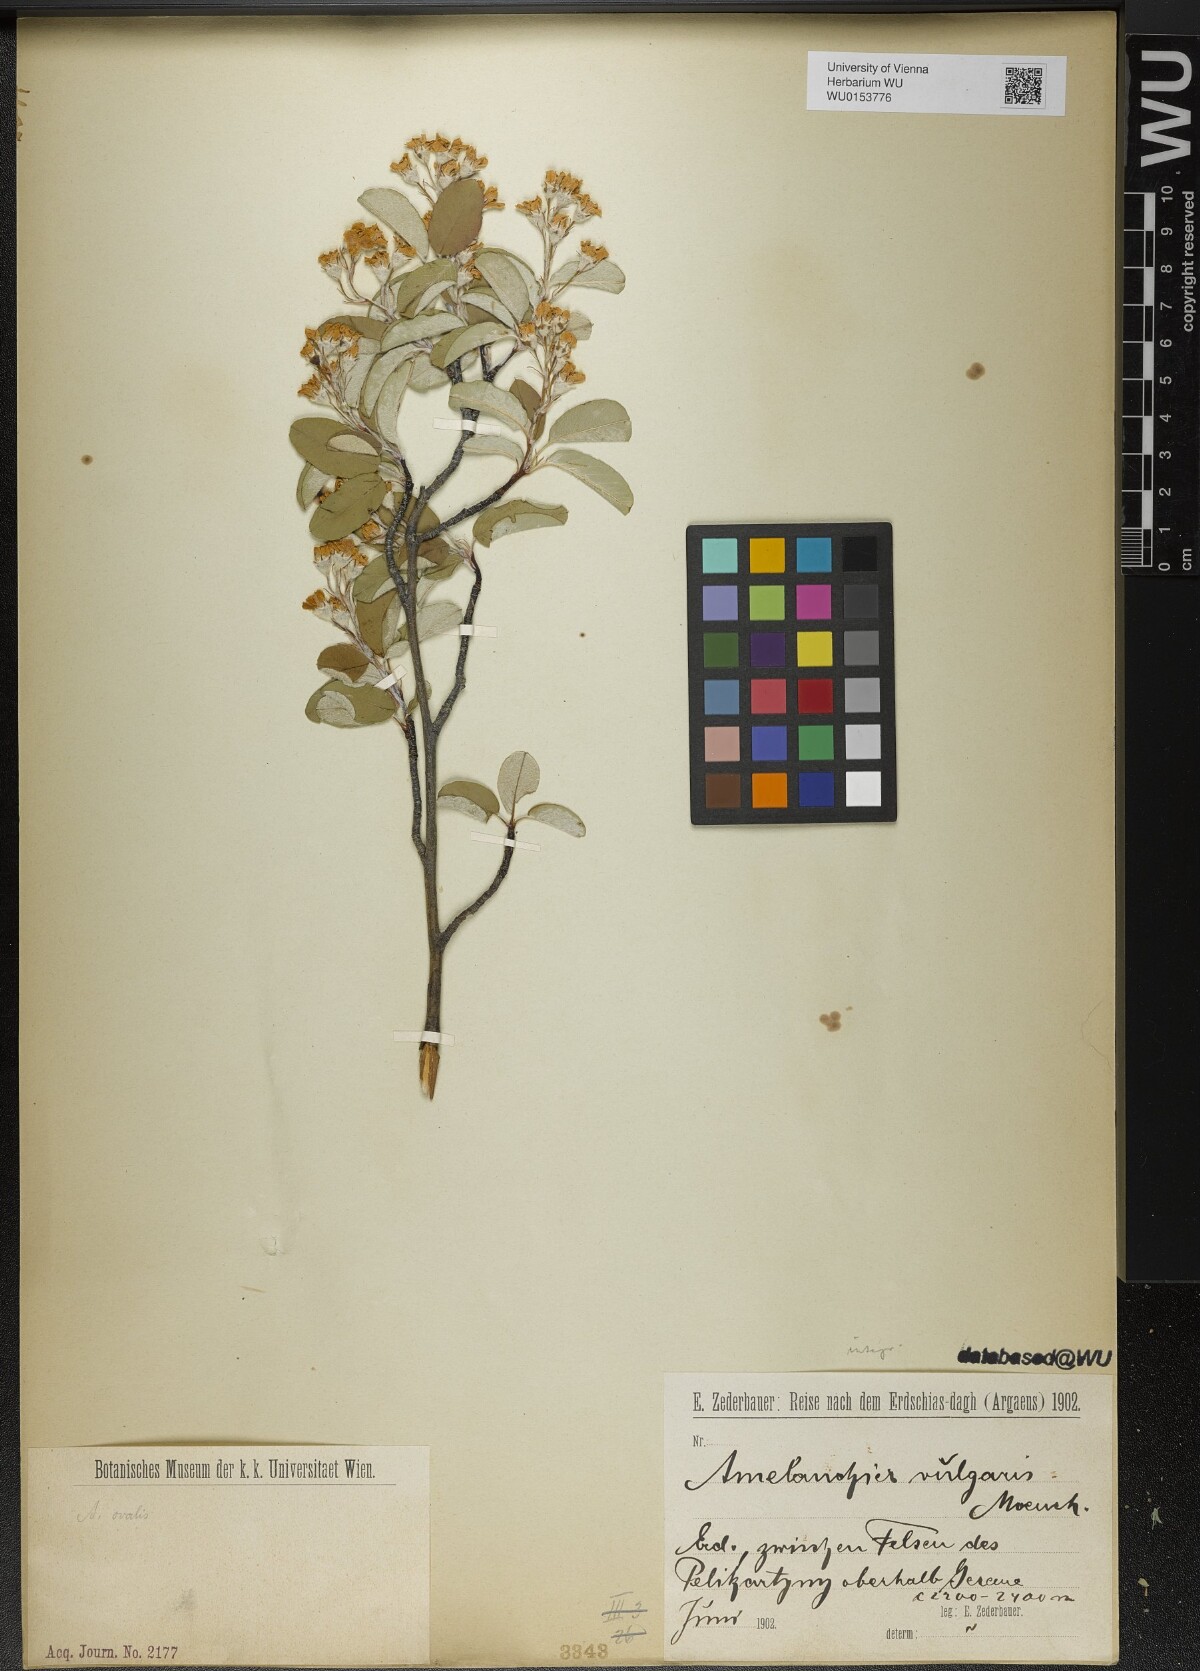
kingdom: Plantae
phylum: Tracheophyta
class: Magnoliopsida
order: Rosales
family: Rosaceae
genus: Amelanchier
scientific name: Amelanchier ovalis
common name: Serviceberry
